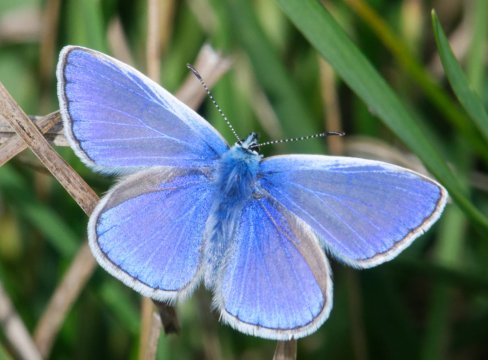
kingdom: Animalia
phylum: Arthropoda
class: Insecta
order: Lepidoptera
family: Lycaenidae
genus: Polyommatus
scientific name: Polyommatus icarus
